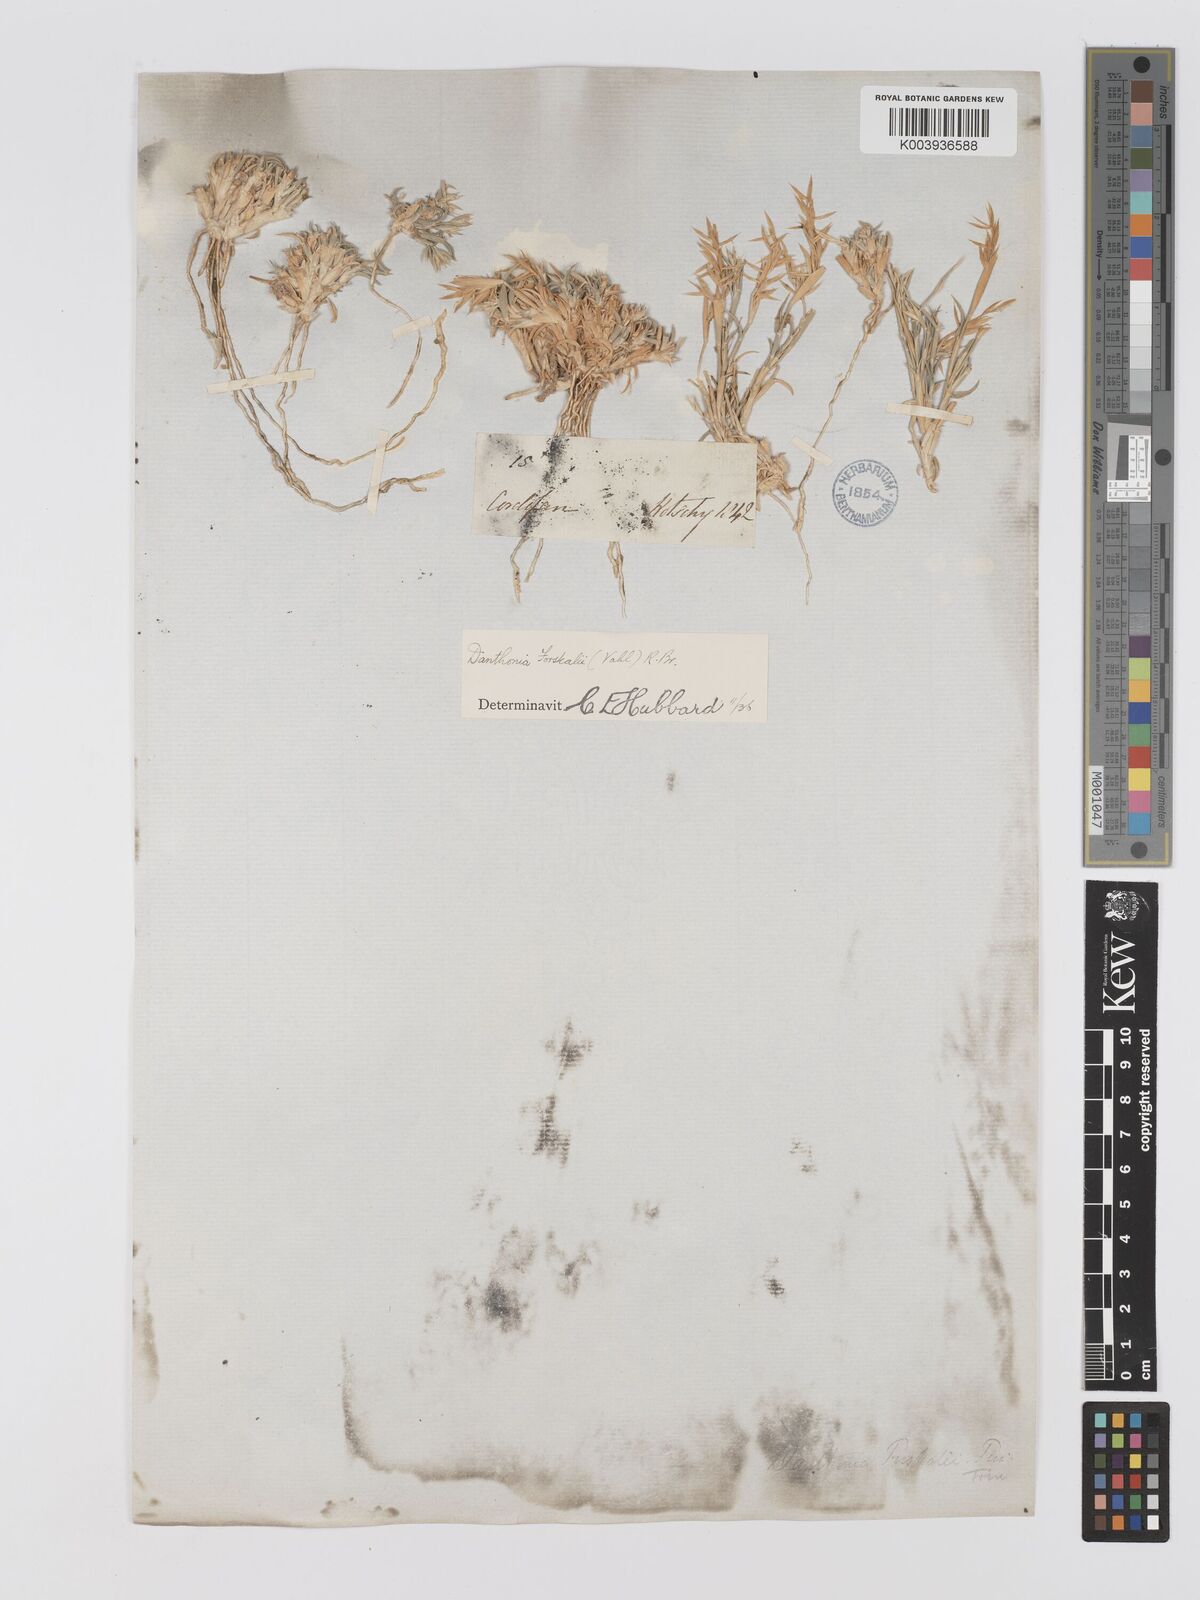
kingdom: Plantae
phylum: Tracheophyta
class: Liliopsida
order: Poales
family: Poaceae
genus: Centropodia
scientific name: Centropodia forskaolii
